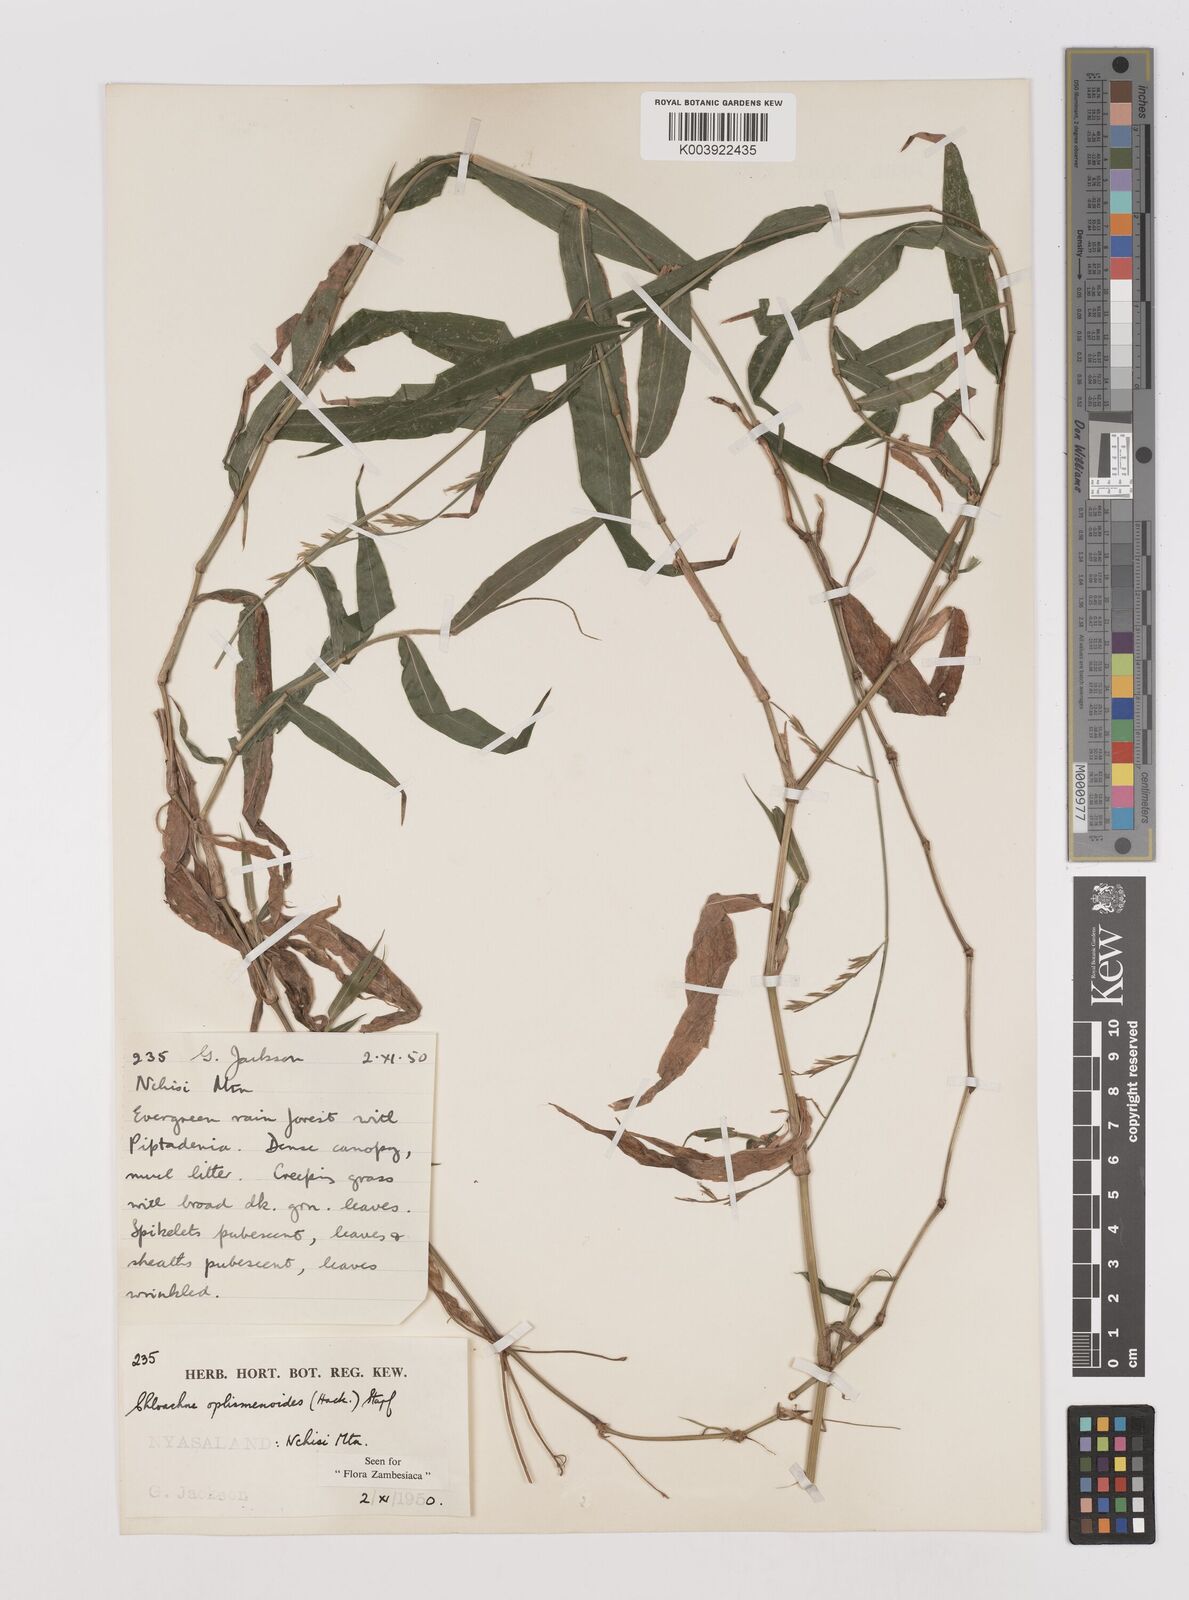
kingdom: Plantae
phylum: Tracheophyta
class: Liliopsida
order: Poales
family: Poaceae
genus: Poecilostachys
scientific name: Poecilostachys oplismenoides
